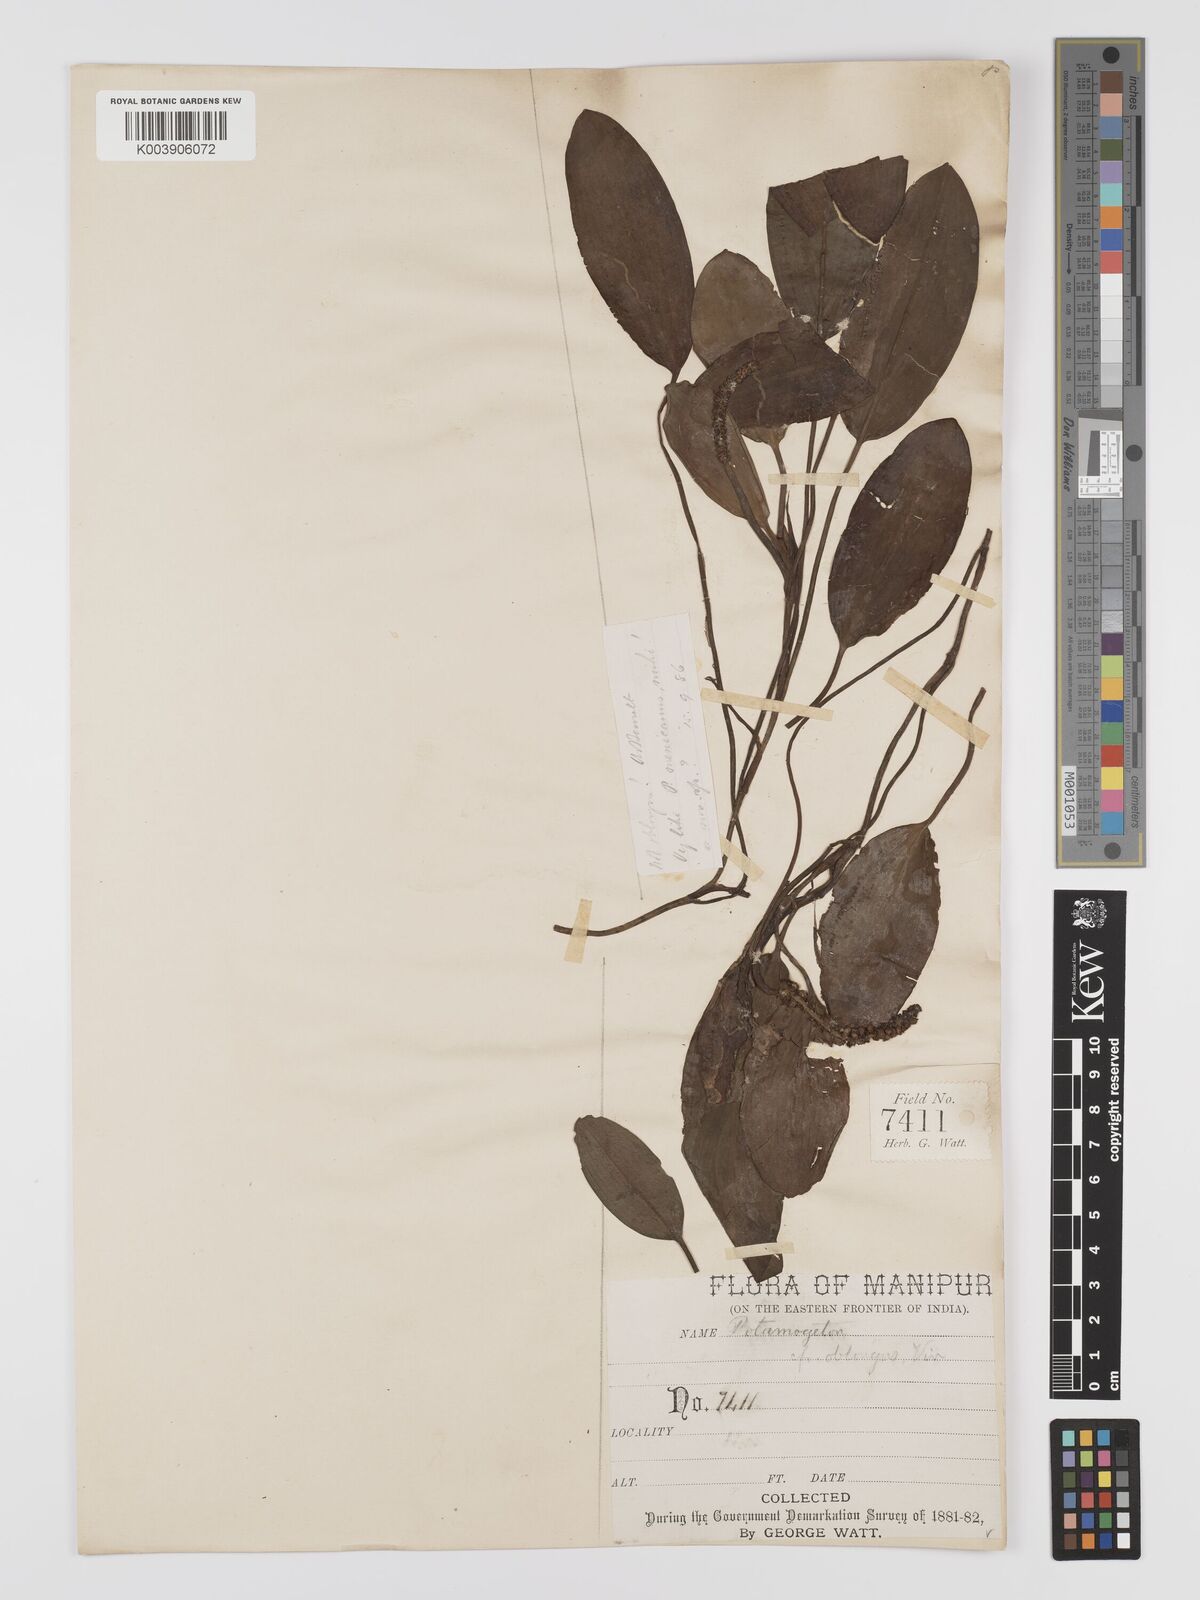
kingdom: Plantae
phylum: Tracheophyta
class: Liliopsida
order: Alismatales
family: Potamogetonaceae
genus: Potamogeton
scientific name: Potamogeton nodosus
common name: Loddon pondweed
